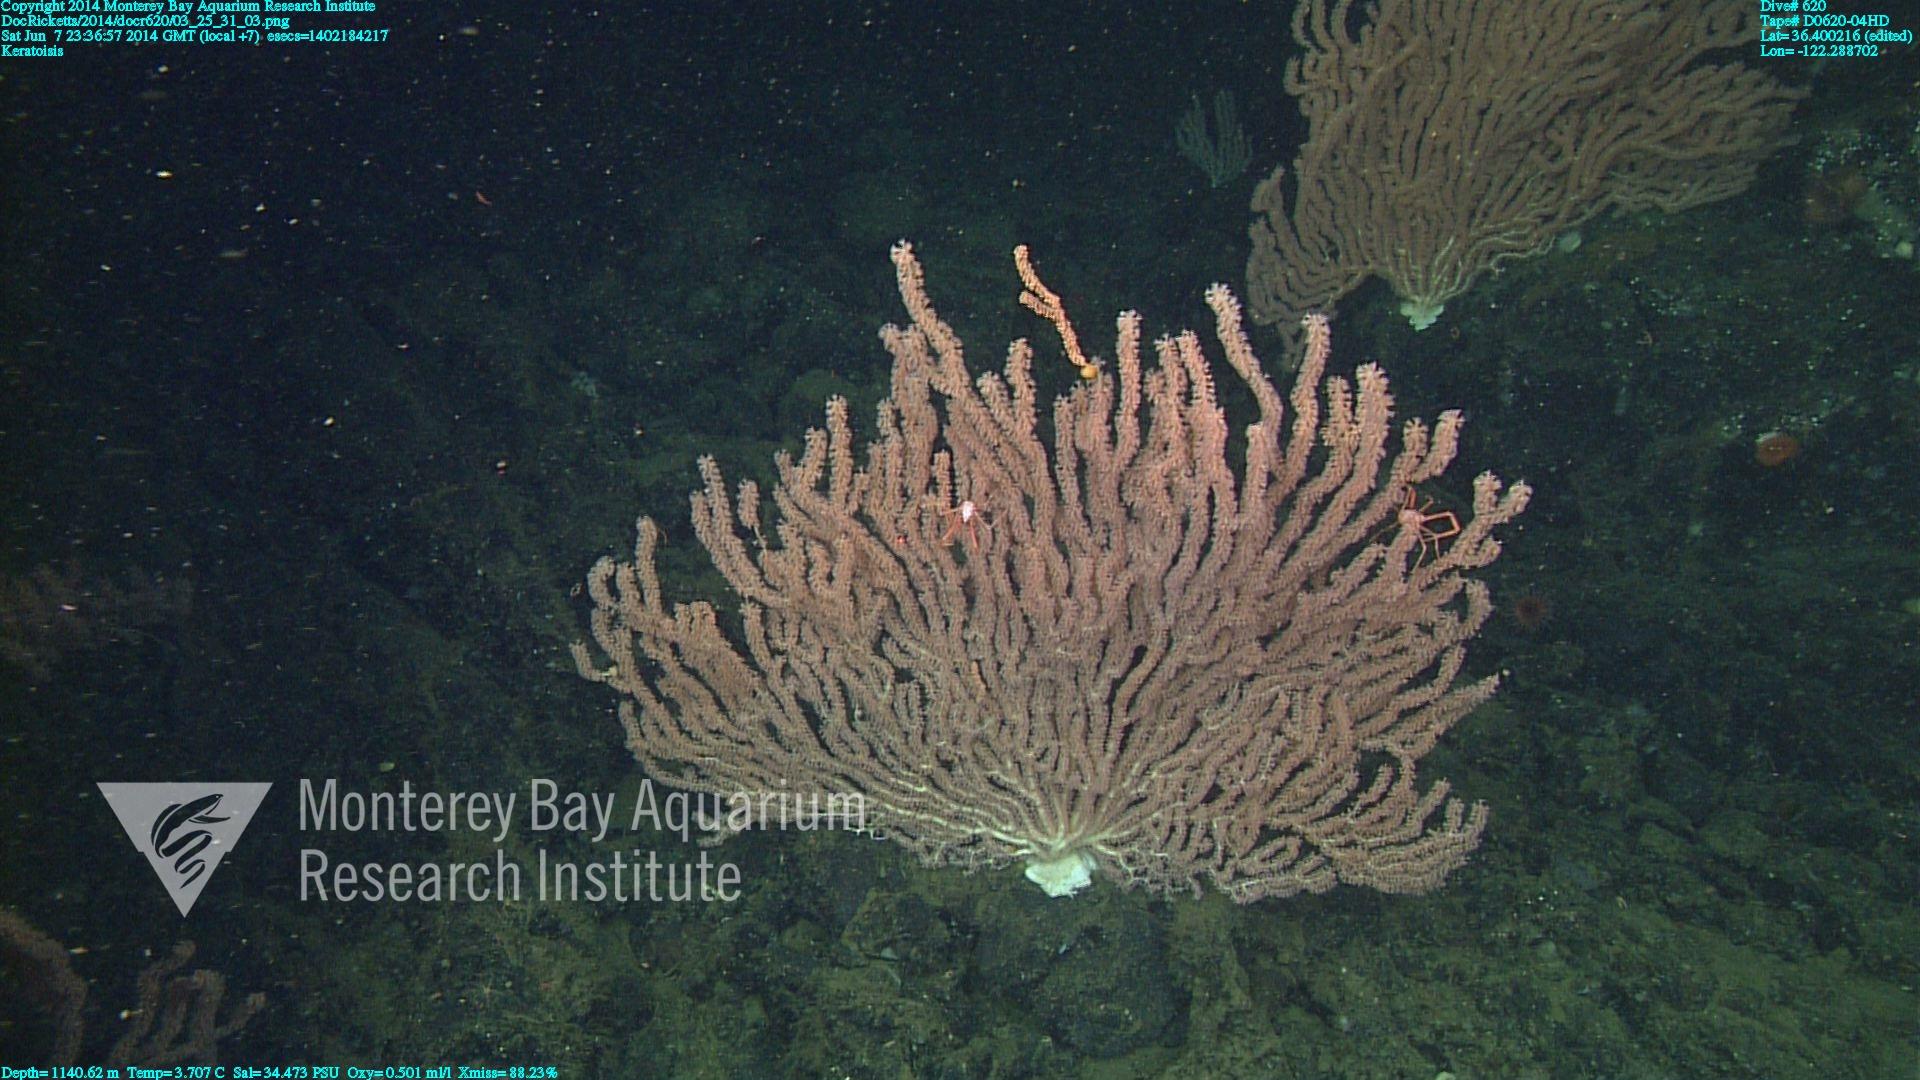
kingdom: Animalia
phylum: Cnidaria
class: Anthozoa
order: Scleralcyonacea
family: Keratoisididae
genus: Keratoisis
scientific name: Keratoisis
